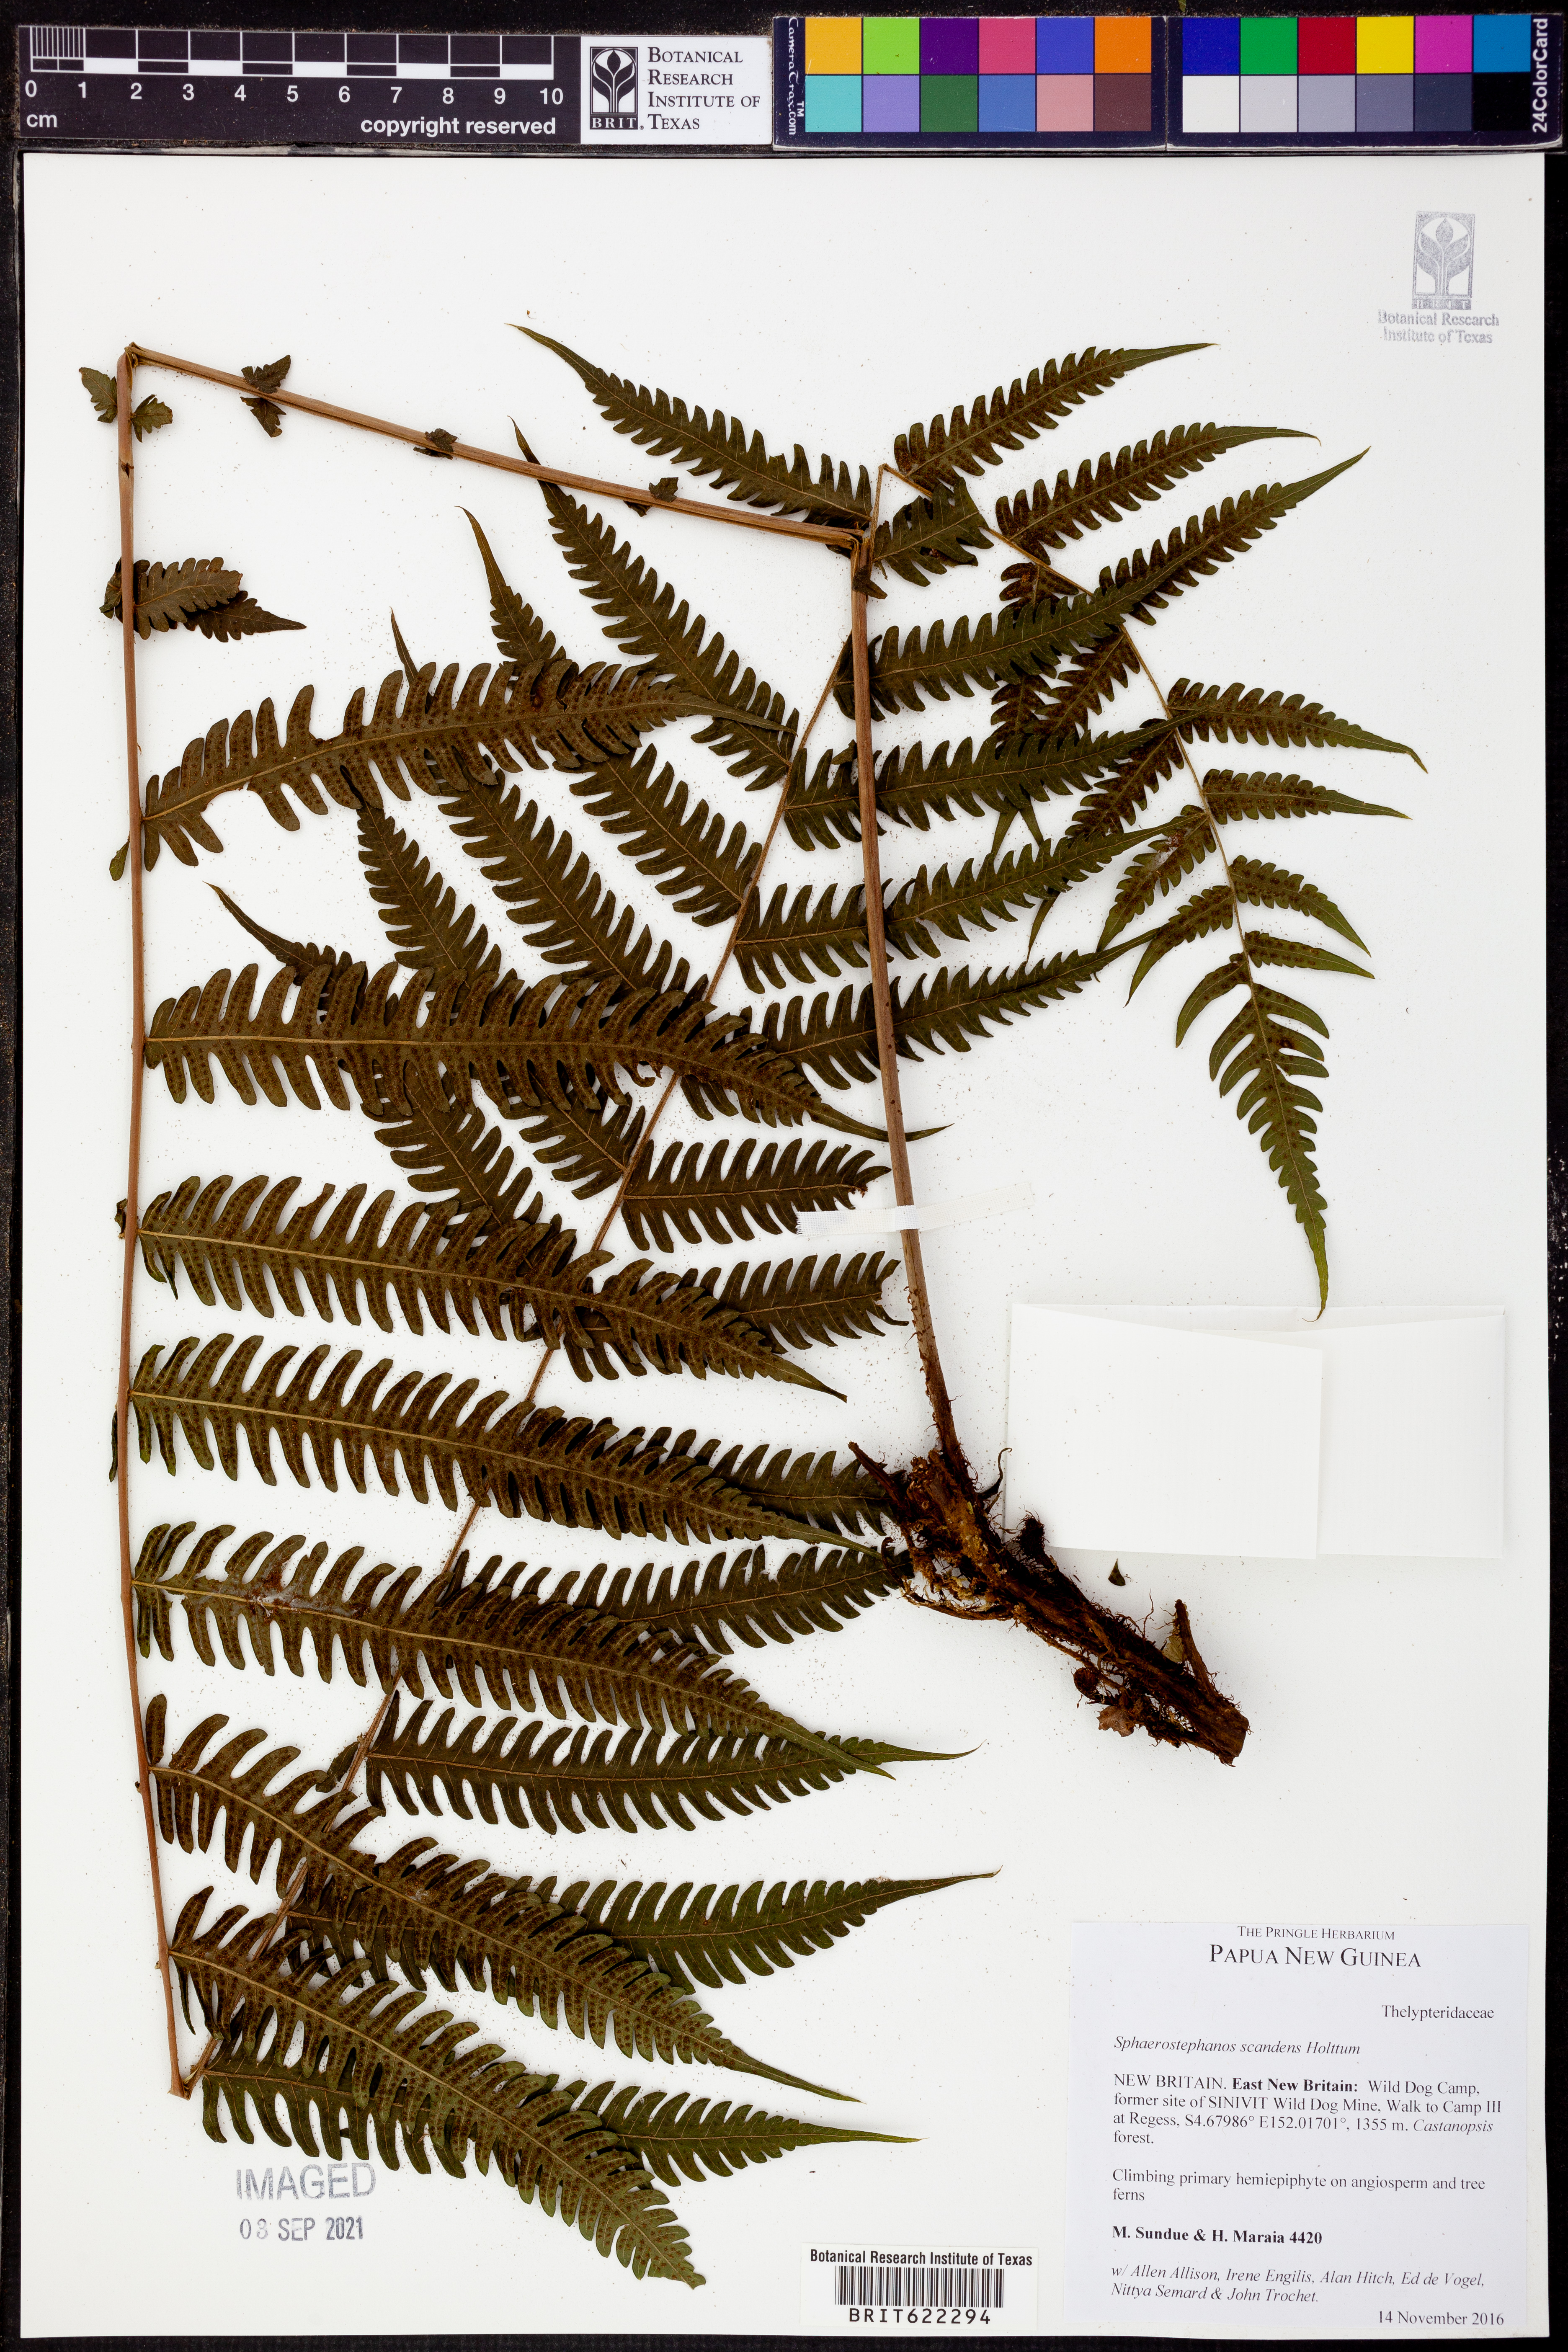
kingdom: Plantae
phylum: Tracheophyta
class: Polypodiopsida
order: Polypodiales
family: Thelypteridaceae
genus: Sphaerostephanos
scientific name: Sphaerostephanos scandens
